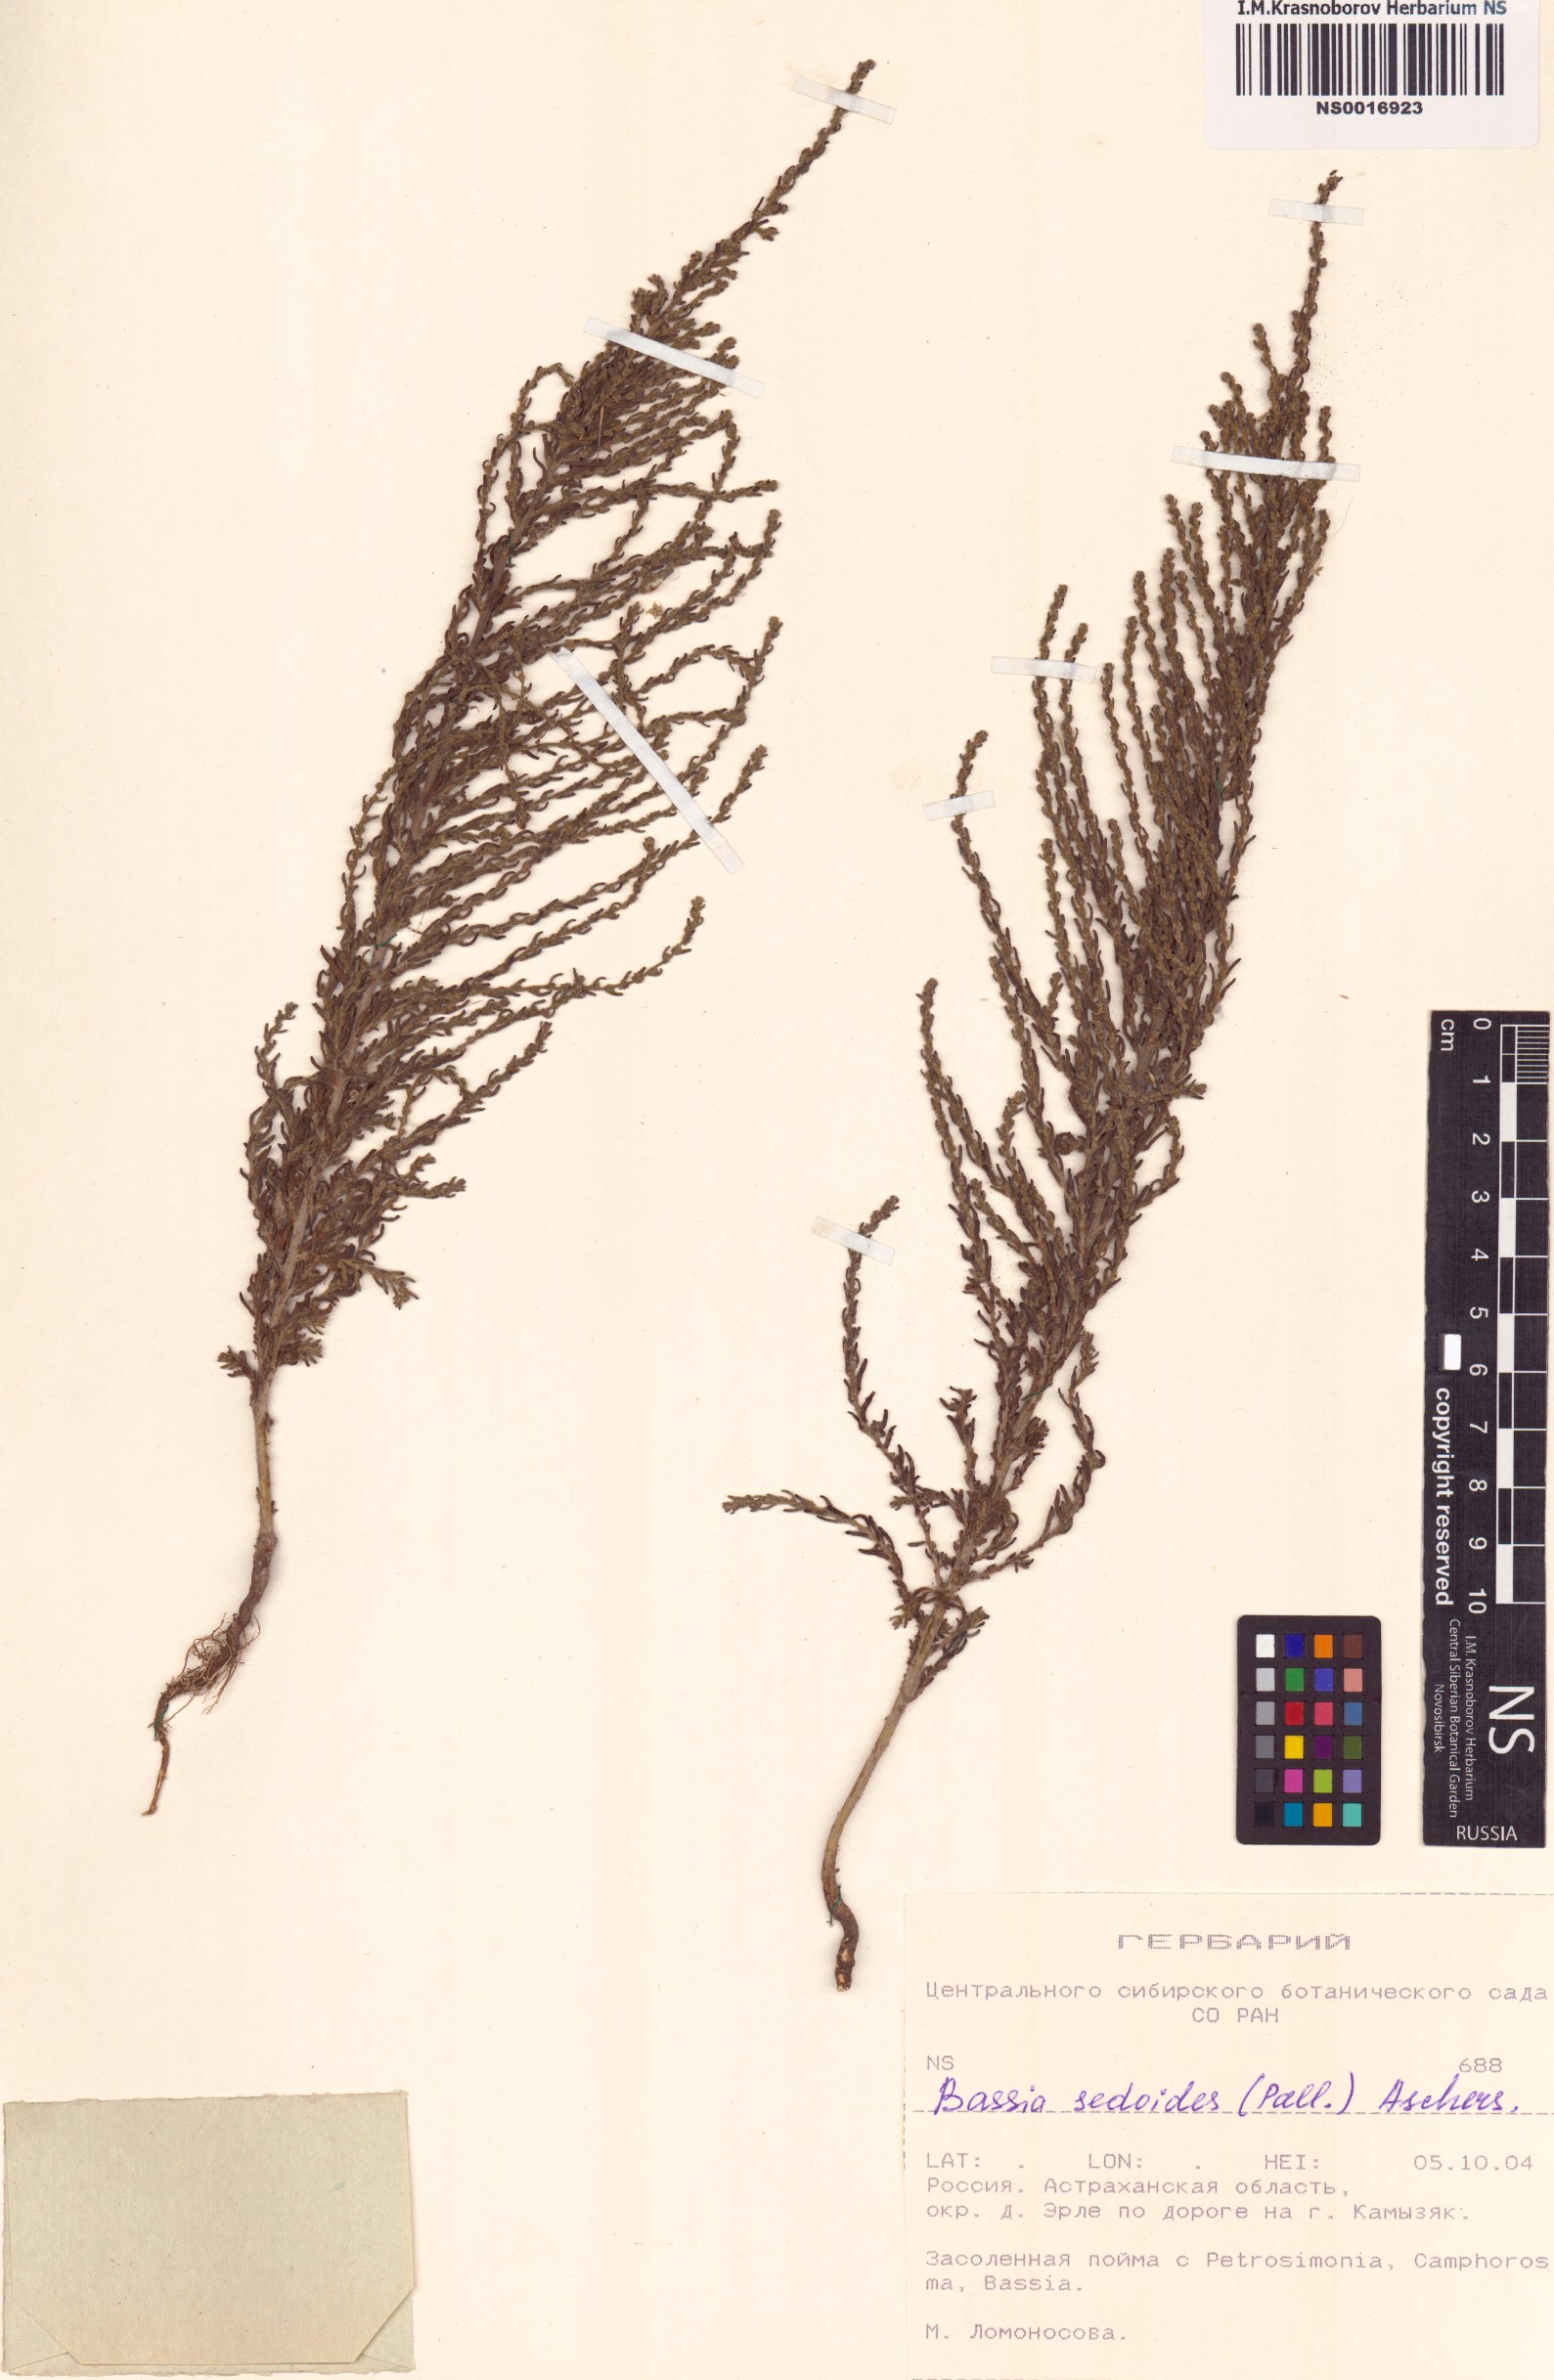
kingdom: Plantae
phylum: Tracheophyta
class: Magnoliopsida
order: Caryophyllales
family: Amaranthaceae
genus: Sedobassia
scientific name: Sedobassia sedoides
